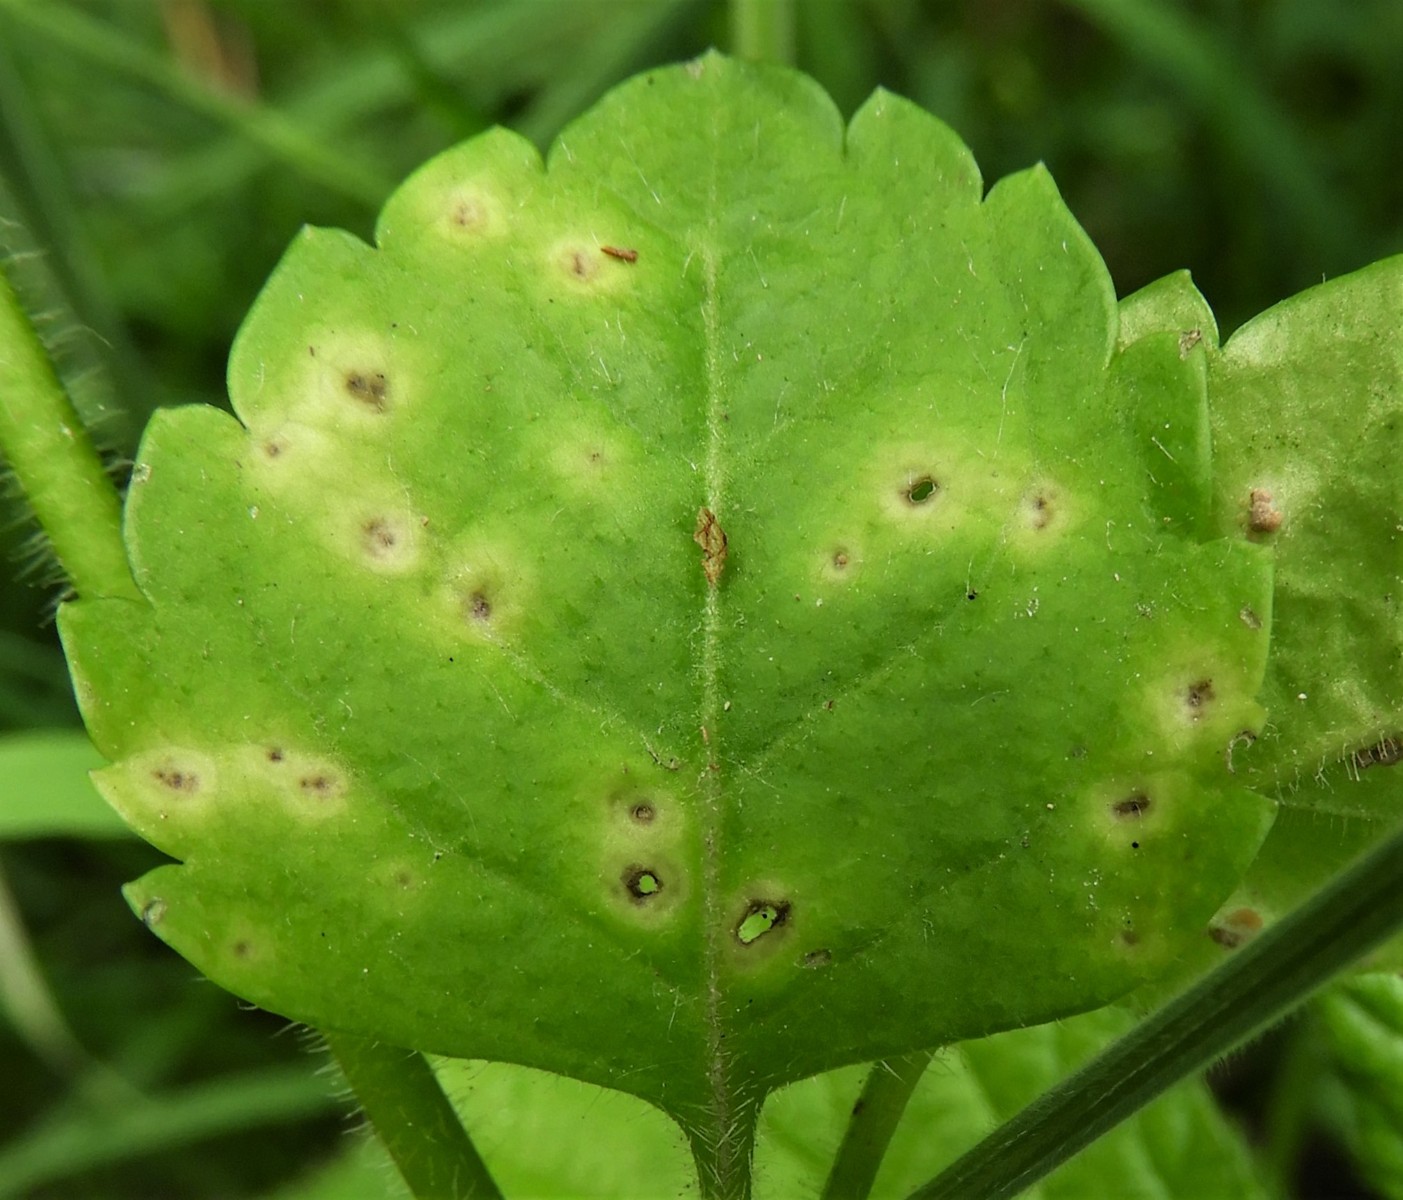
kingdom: Fungi
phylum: Basidiomycota
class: Pucciniomycetes
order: Pucciniales
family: Pucciniaceae
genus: Puccinia
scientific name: Puccinia albulensis
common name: Alpine veronica rust
